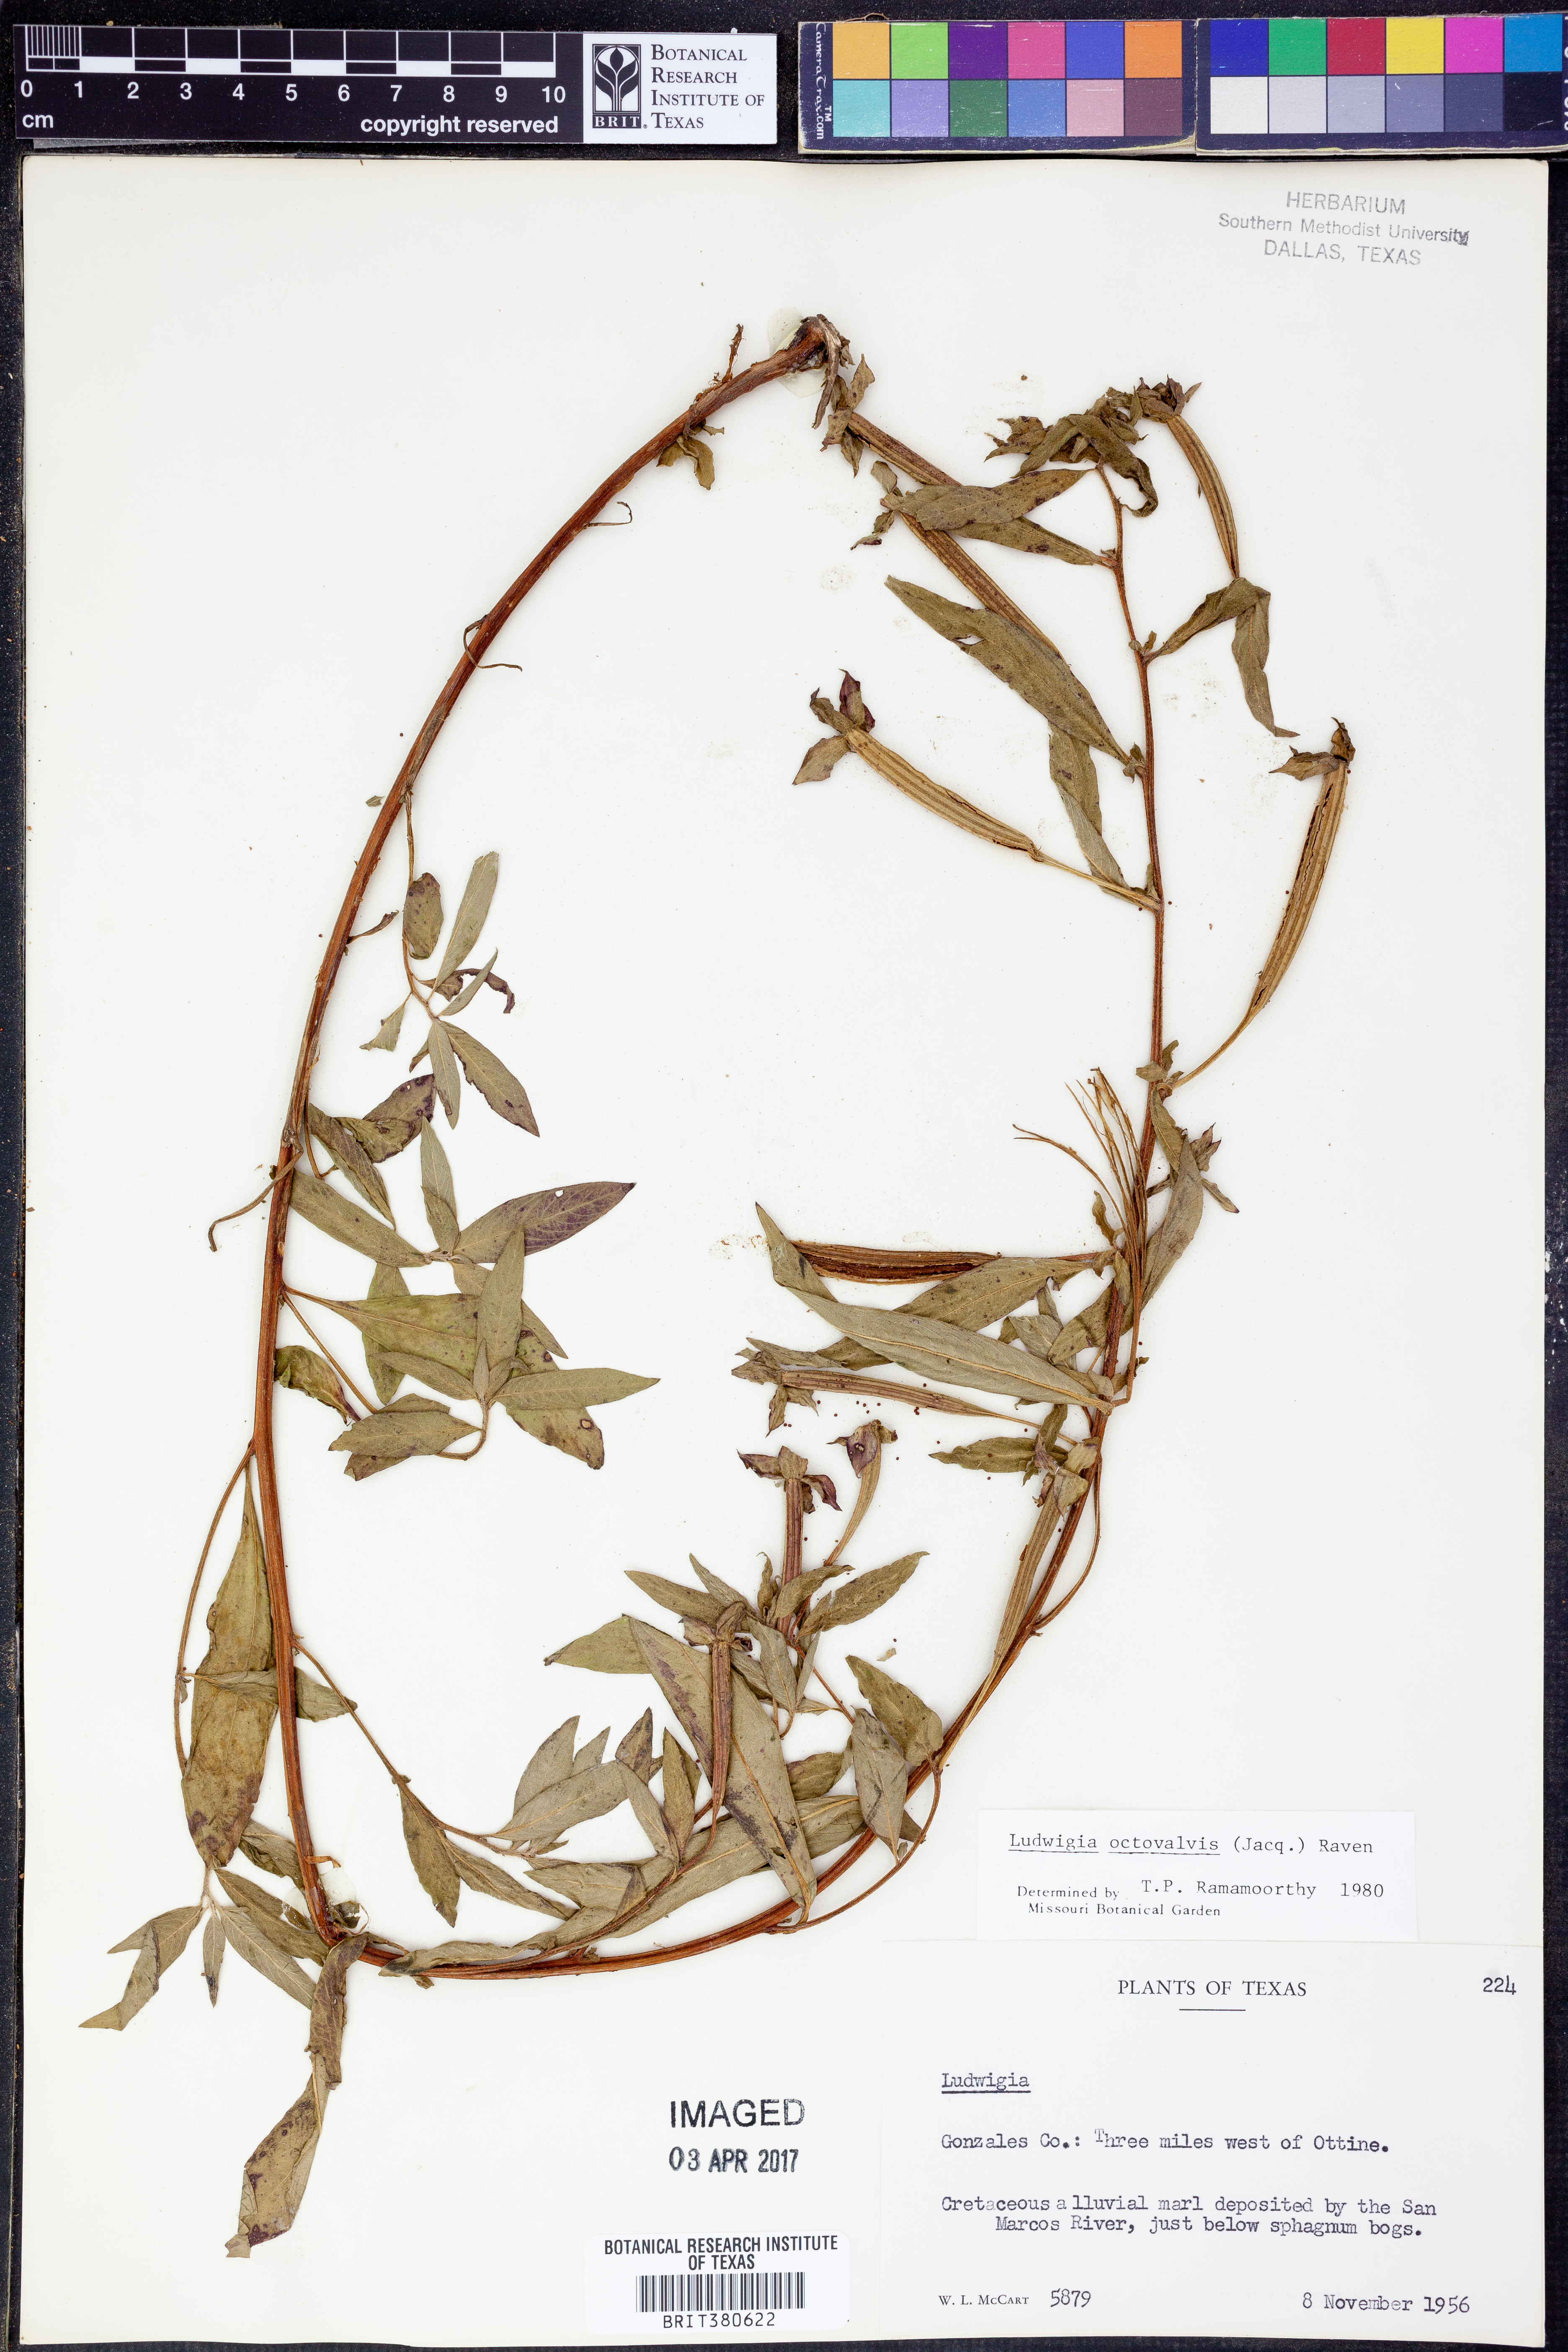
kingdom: Plantae
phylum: Tracheophyta
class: Magnoliopsida
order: Myrtales
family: Onagraceae
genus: Ludwigia
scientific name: Ludwigia octovalvis
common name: Water-primrose
